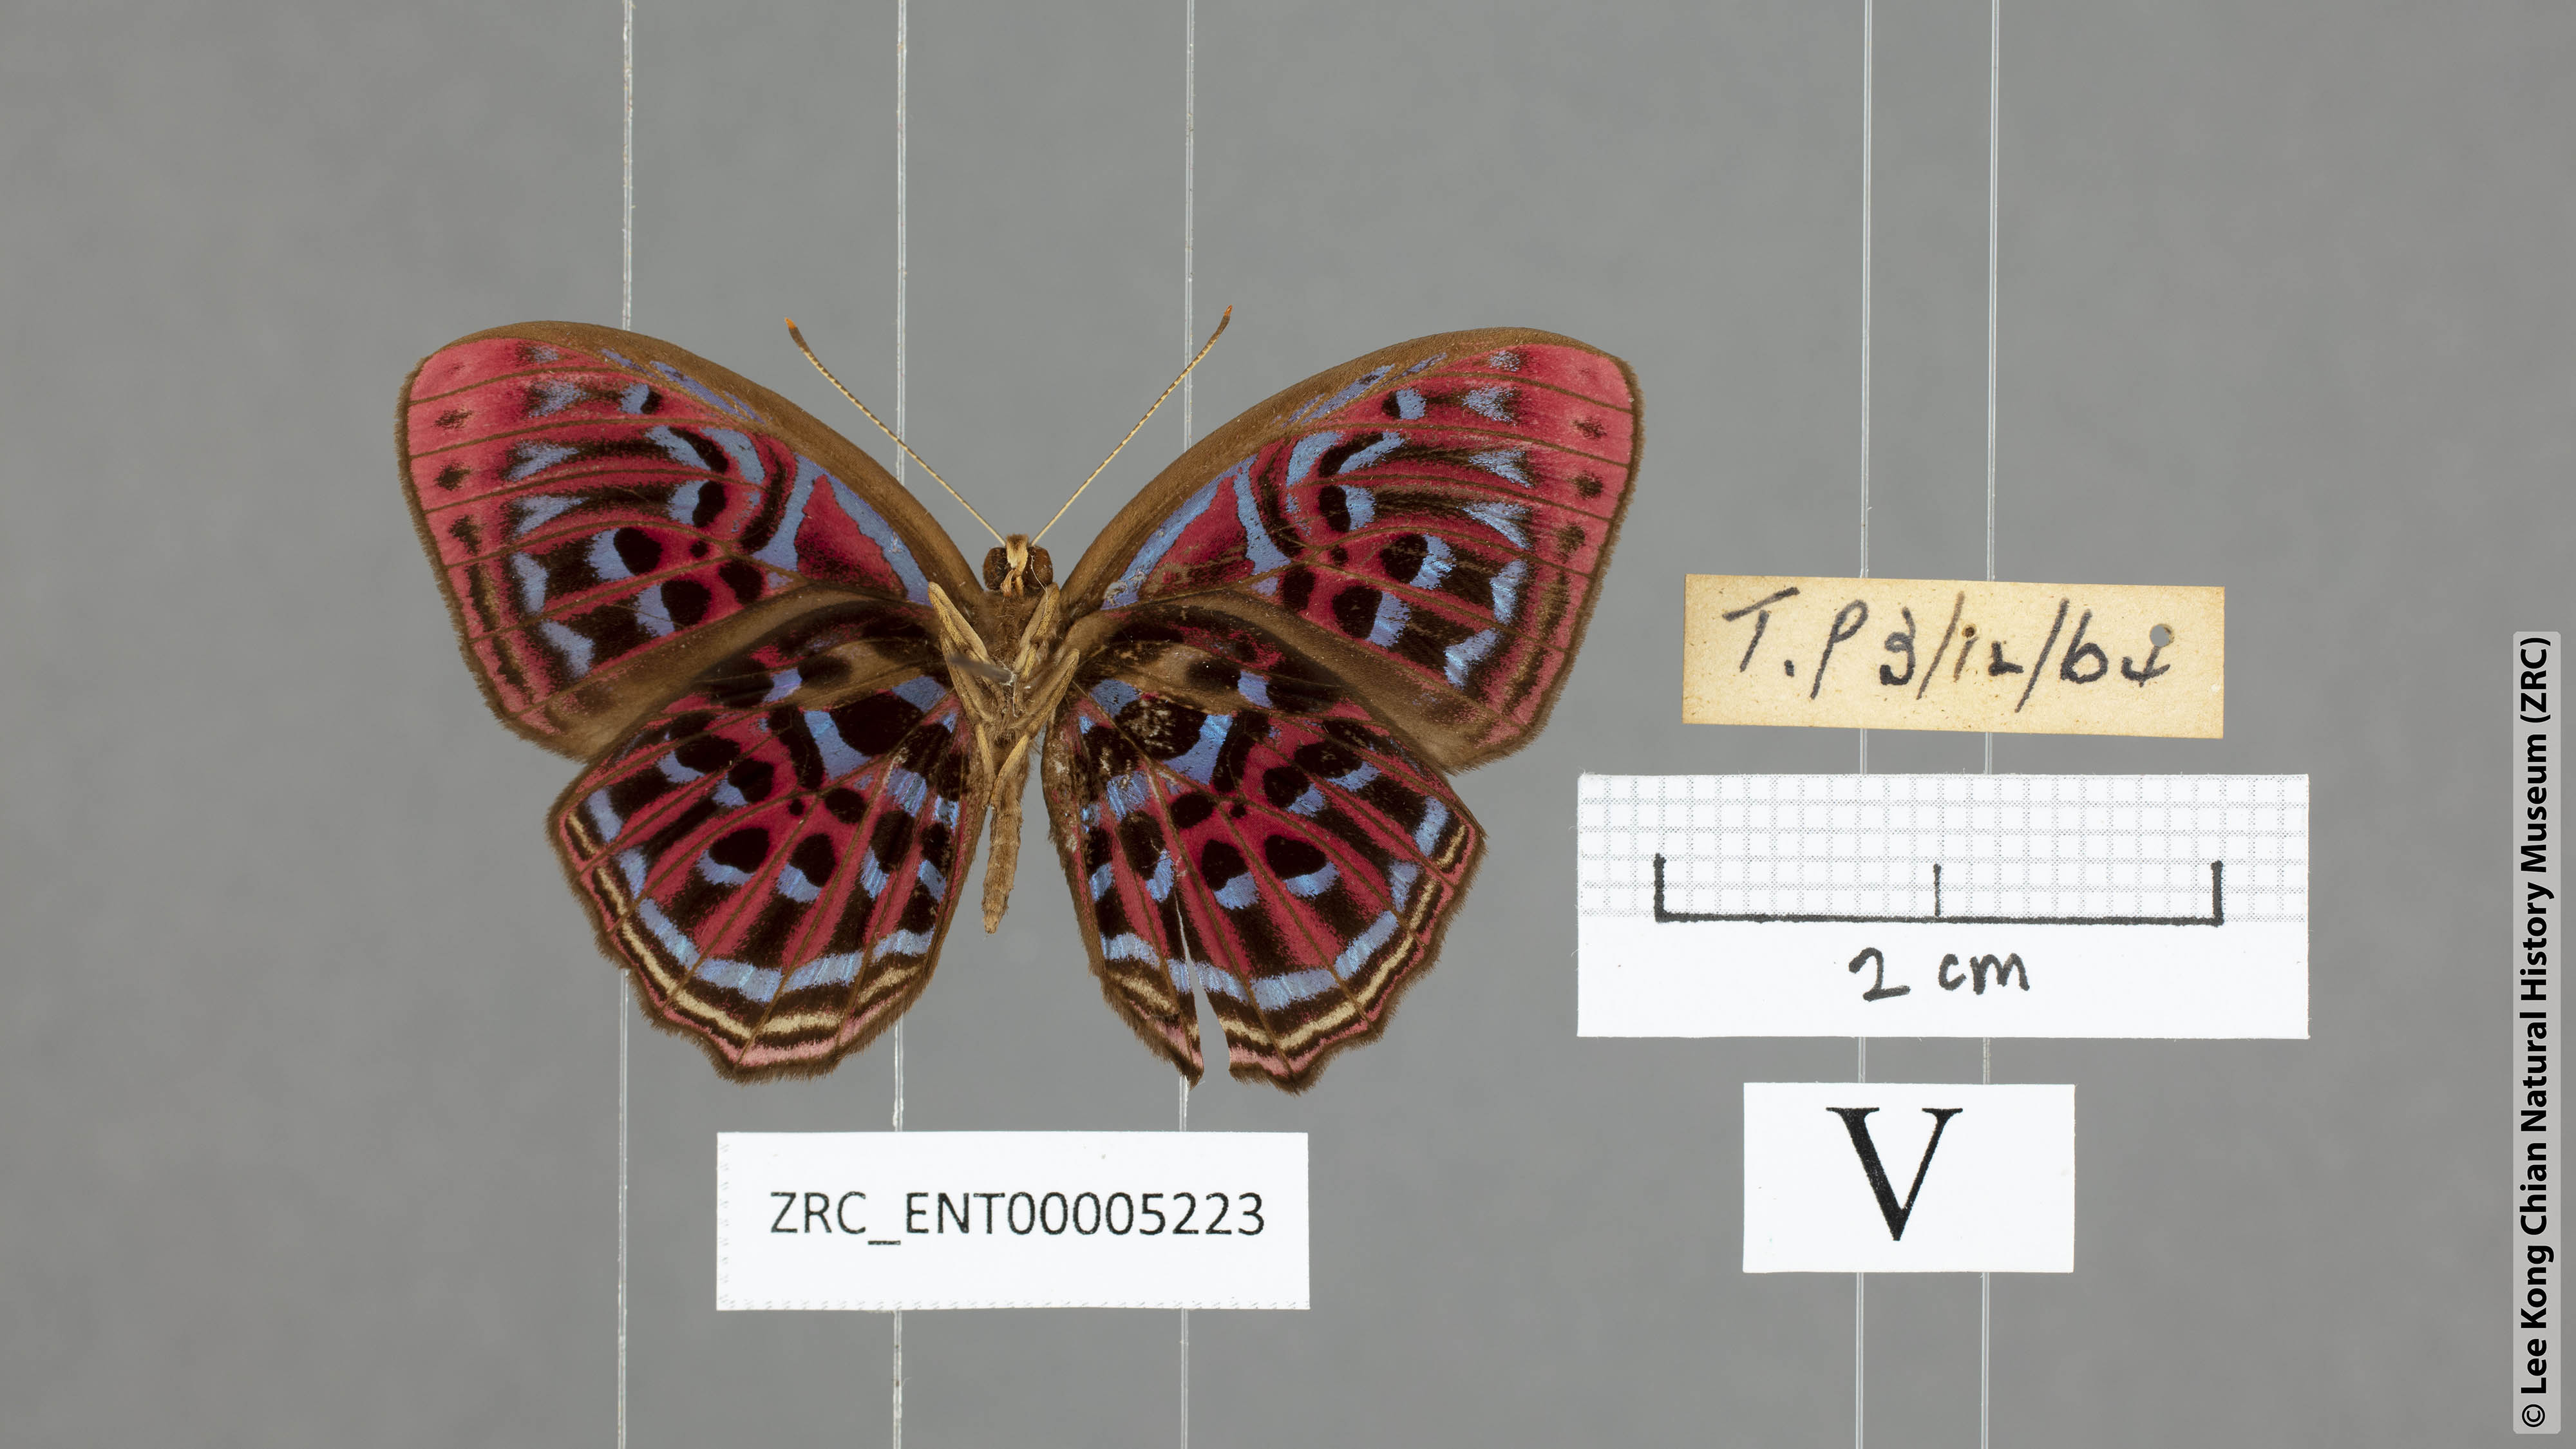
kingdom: Animalia
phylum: Arthropoda
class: Insecta
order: Lepidoptera
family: Riodinidae
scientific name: Riodinidae
